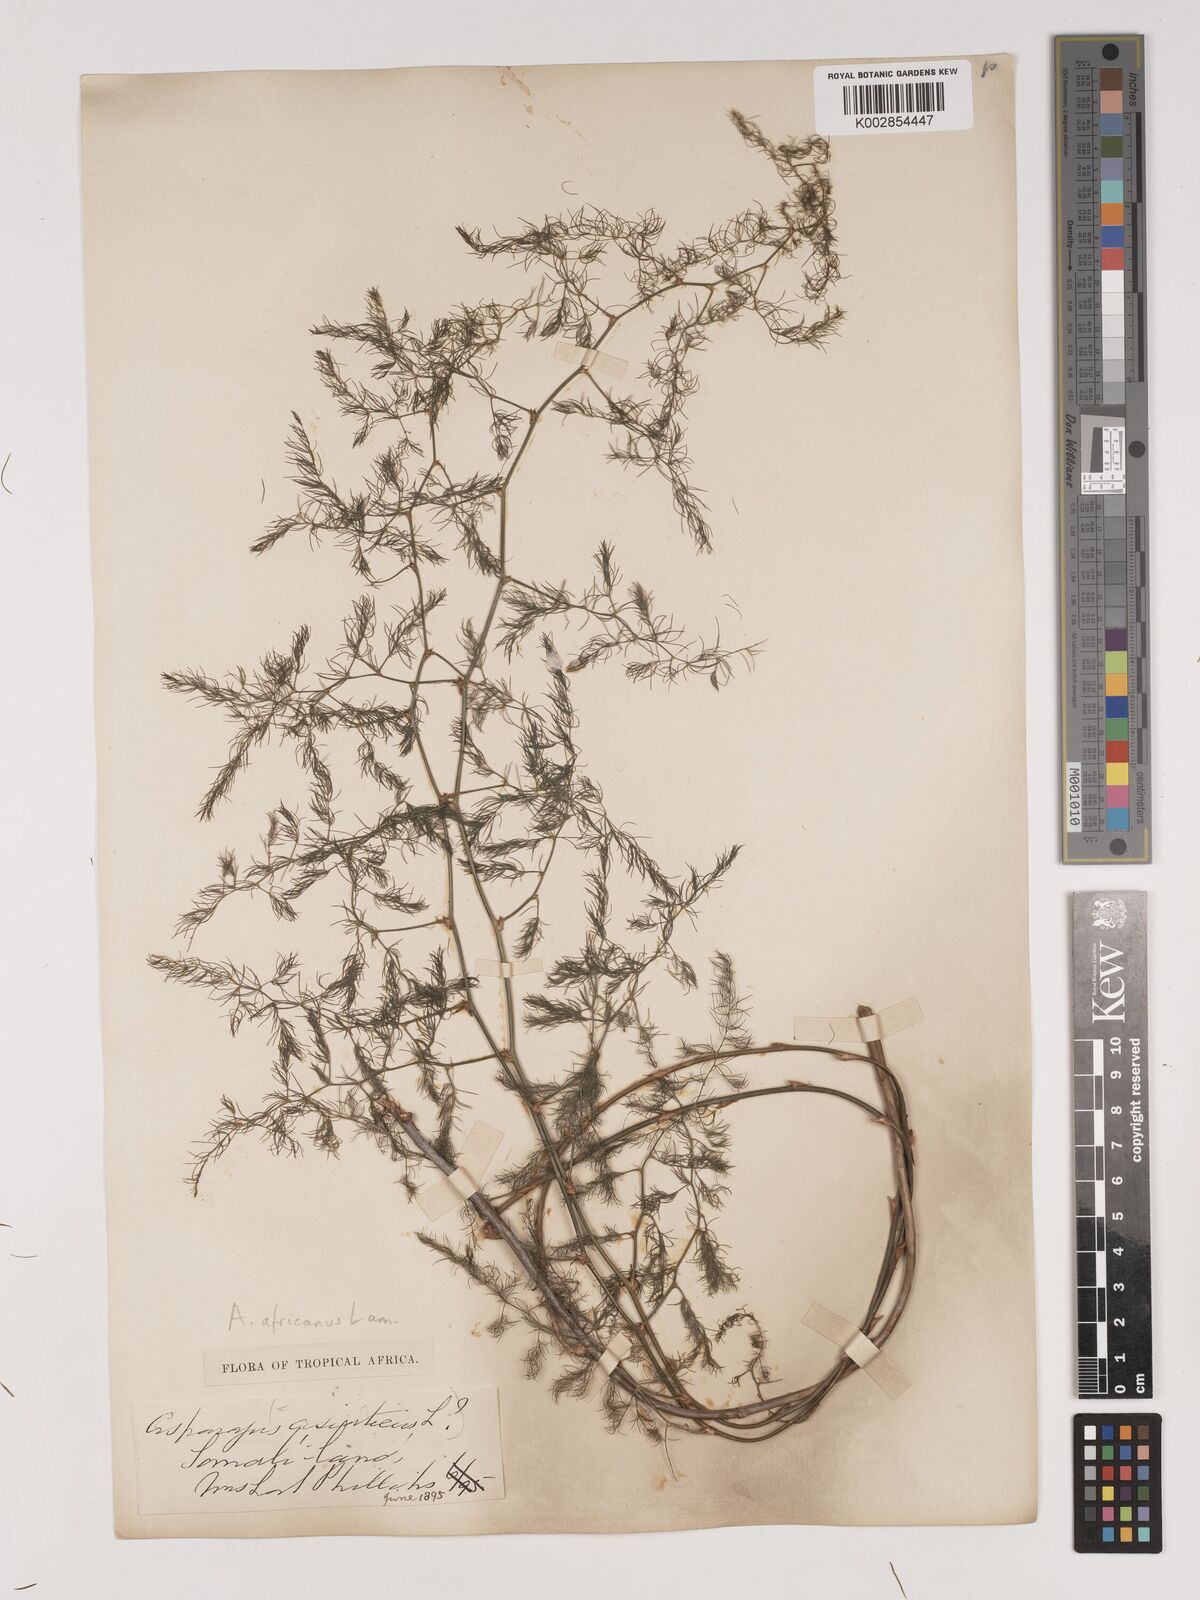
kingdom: Plantae
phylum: Tracheophyta
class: Liliopsida
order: Asparagales
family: Asparagaceae
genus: Asparagus
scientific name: Asparagus
